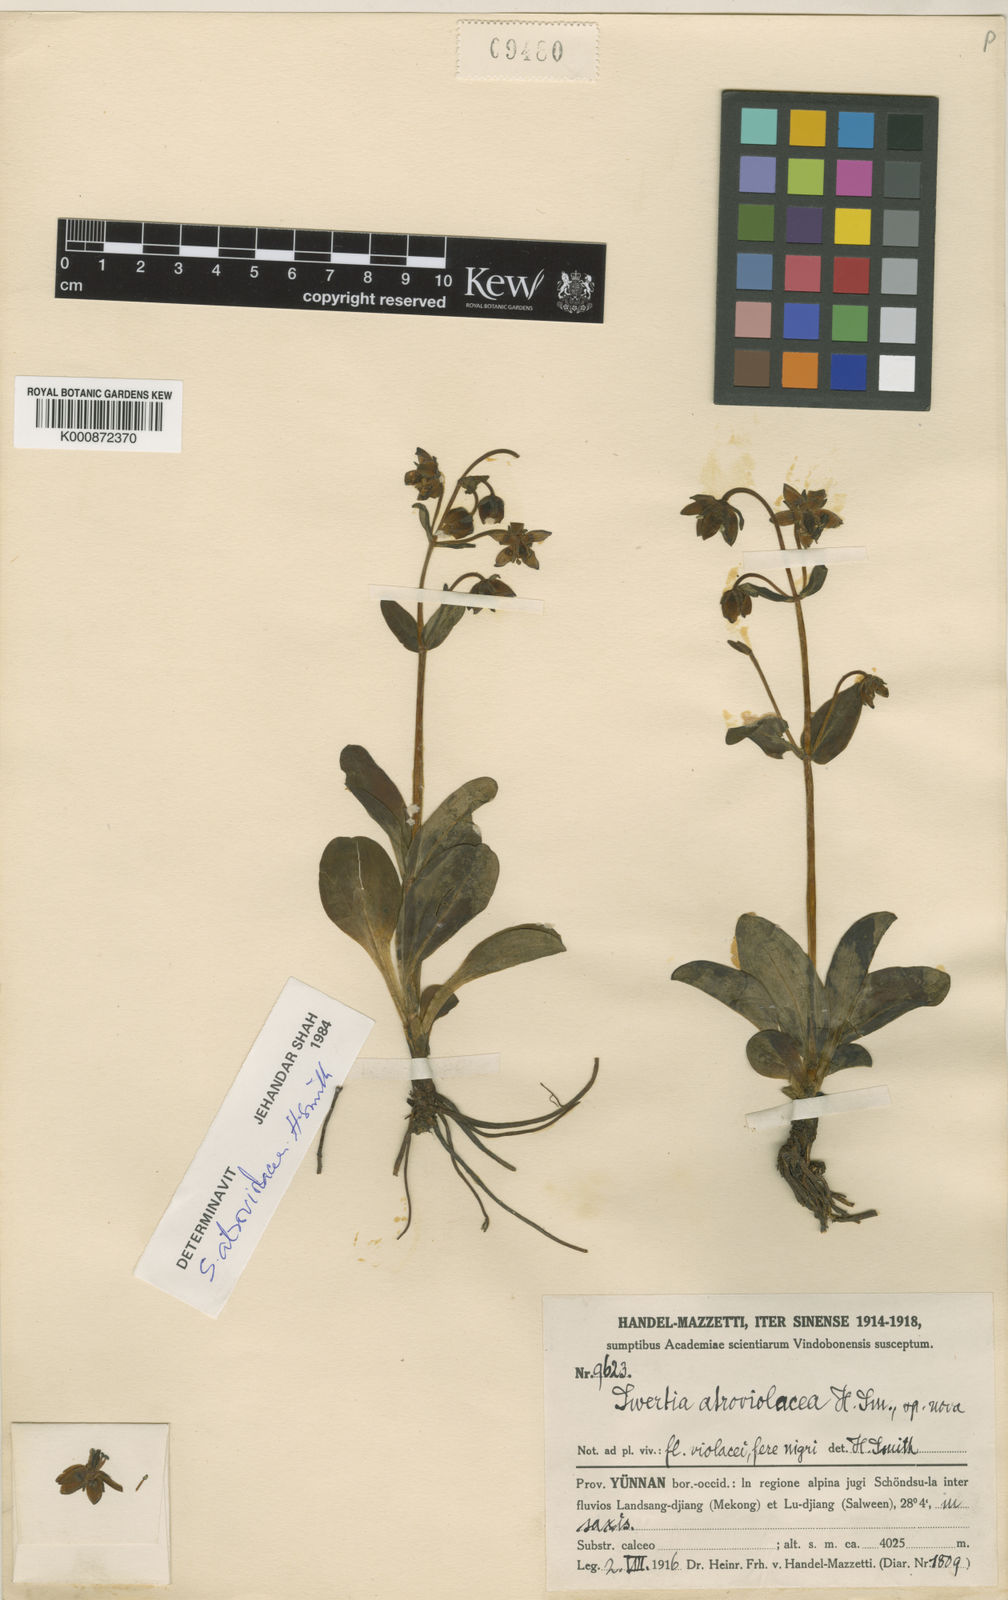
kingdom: Plantae
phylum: Tracheophyta
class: Magnoliopsida
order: Gentianales
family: Gentianaceae
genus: Swertia
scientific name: Swertia asarifolia
